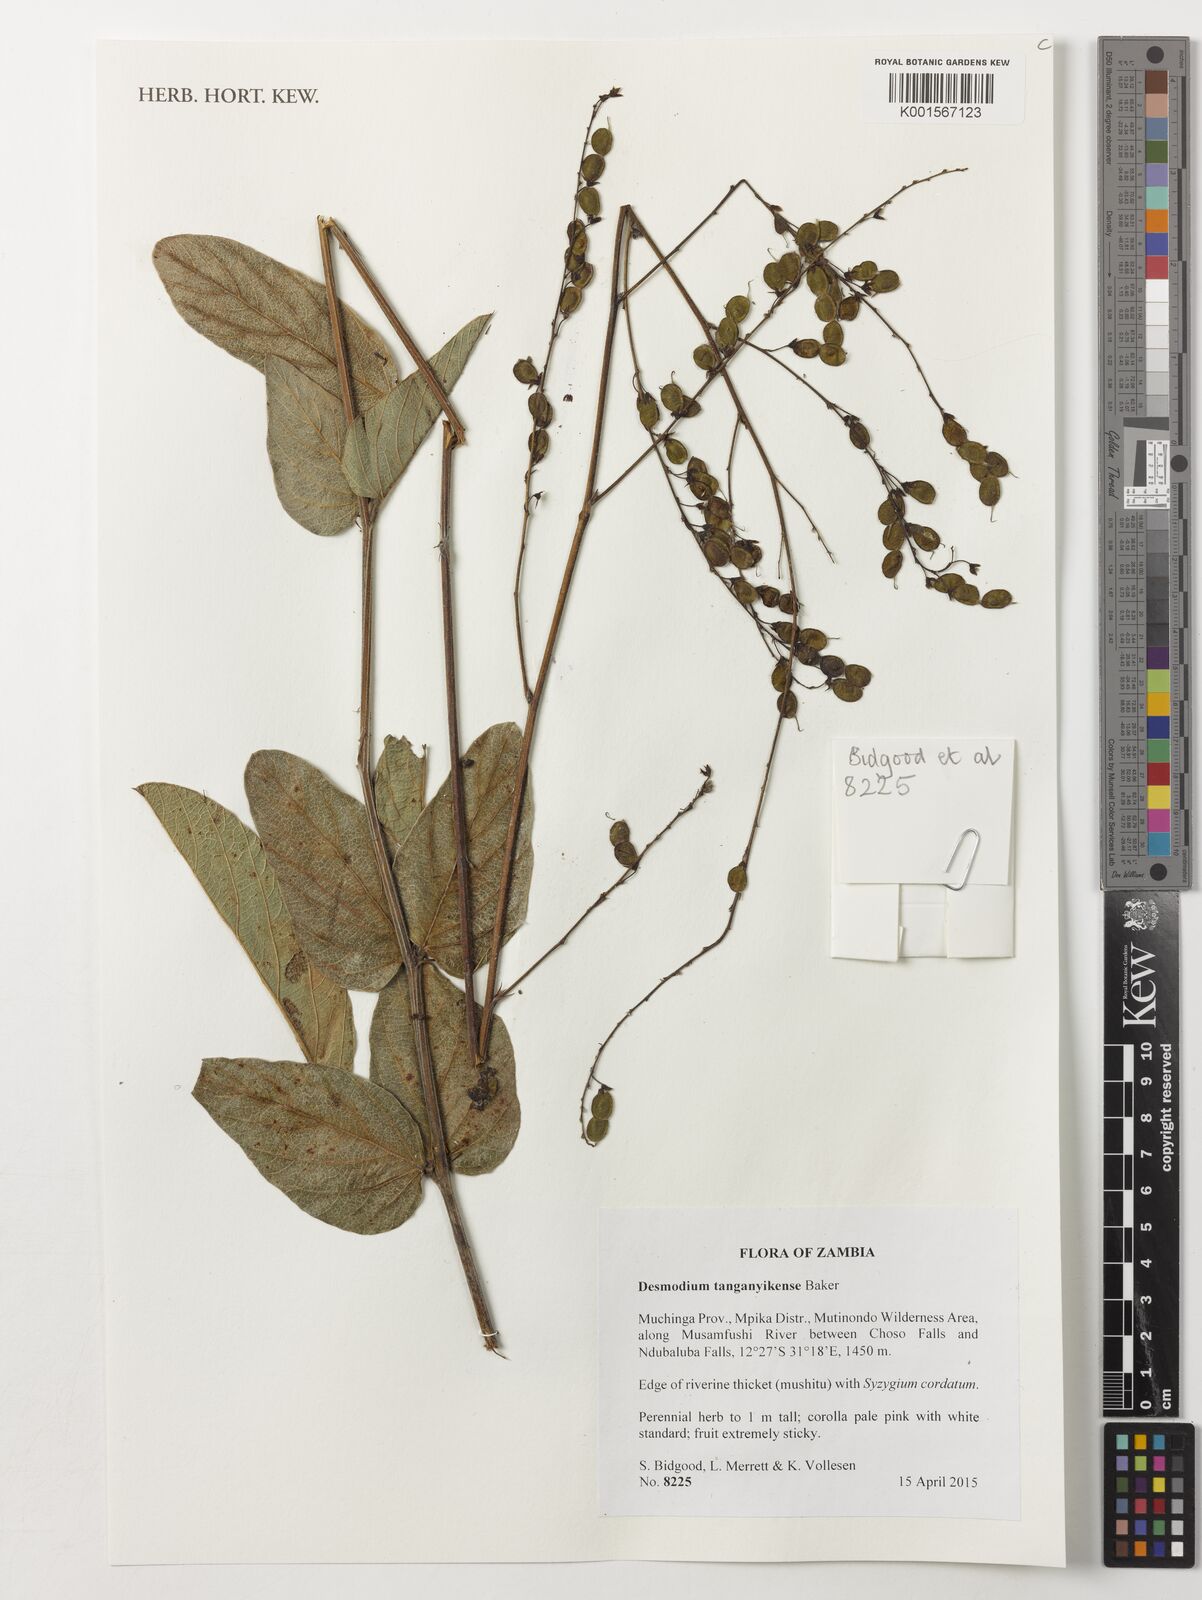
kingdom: Plantae
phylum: Tracheophyta
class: Magnoliopsida
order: Fabales
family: Fabaceae
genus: Pleurolobus
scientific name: Pleurolobus tanganyikensis
